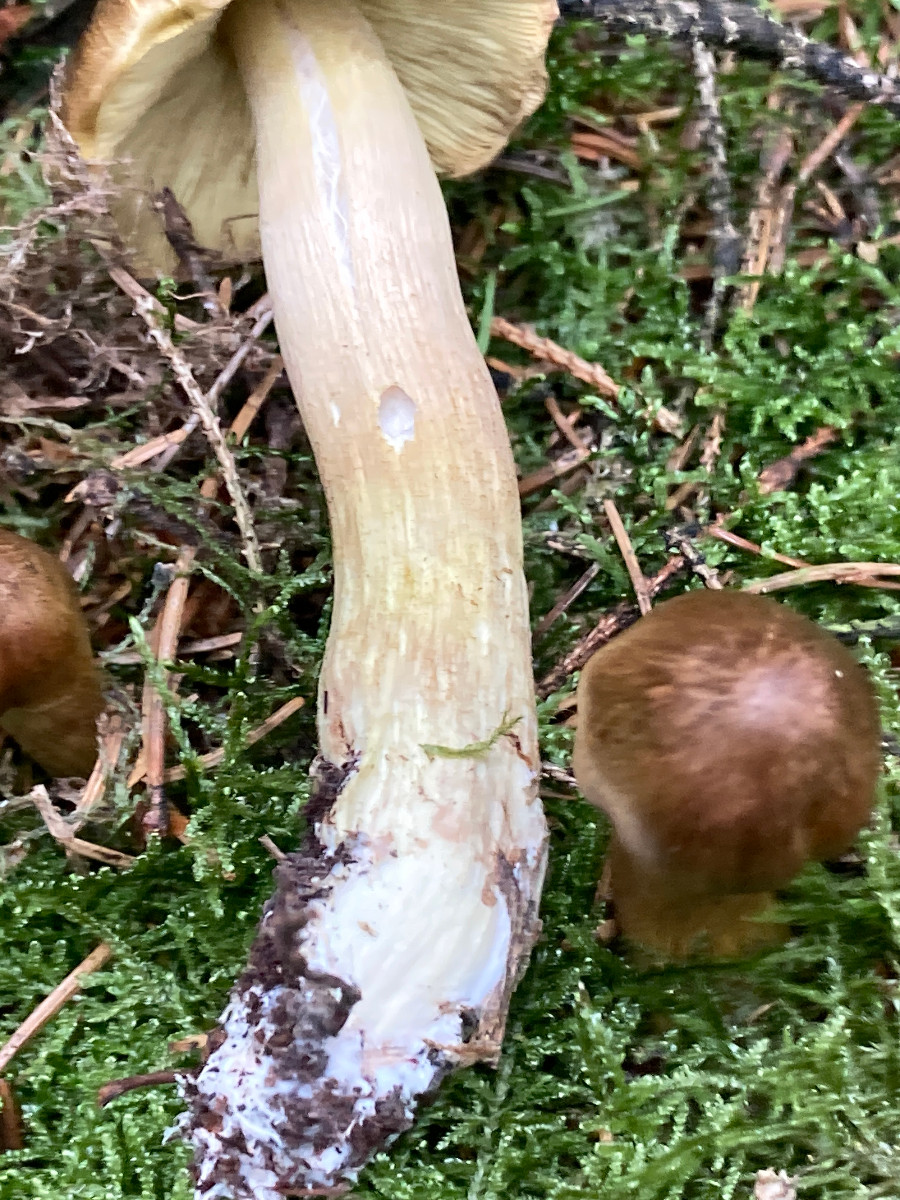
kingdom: Fungi
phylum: Basidiomycota
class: Agaricomycetes
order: Agaricales
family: Tricholomataceae
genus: Tricholoma
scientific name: Tricholoma aestuans
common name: kegle-ridderhat
